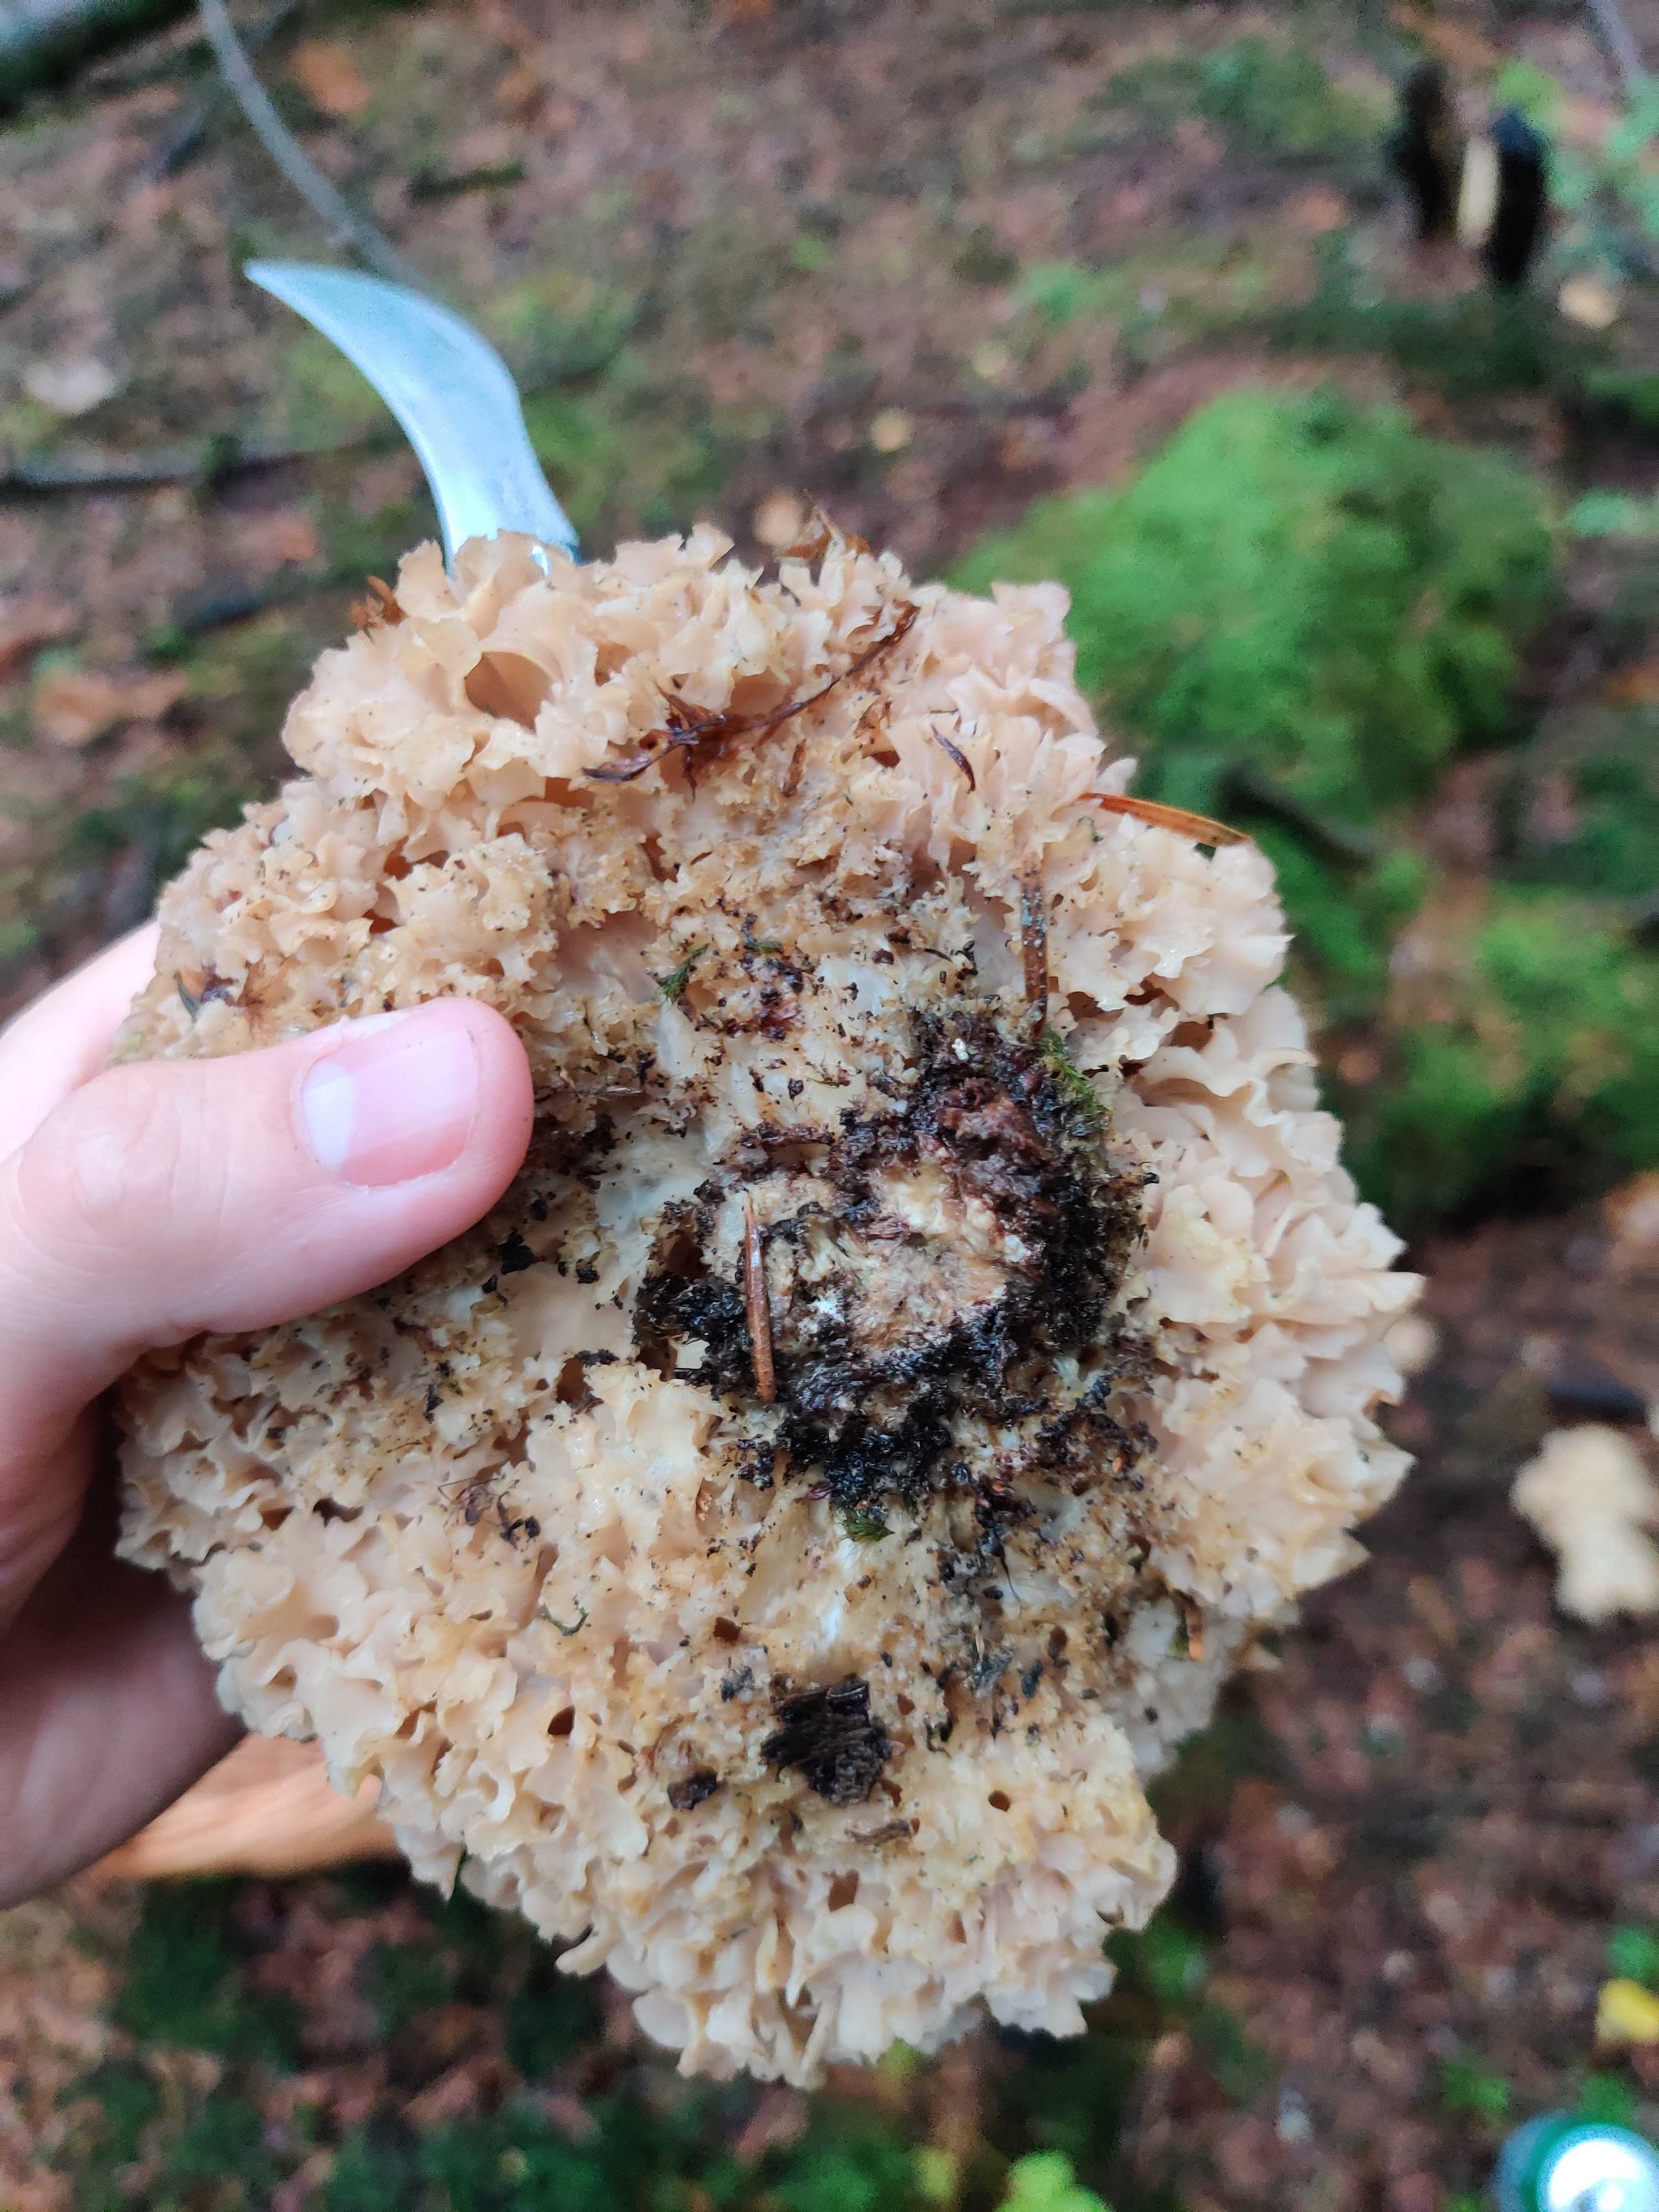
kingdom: Fungi
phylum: Basidiomycota
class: Agaricomycetes
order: Polyporales
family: Sparassidaceae
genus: Sparassis
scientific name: Sparassis crispa
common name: kruset blomkålssvamp
